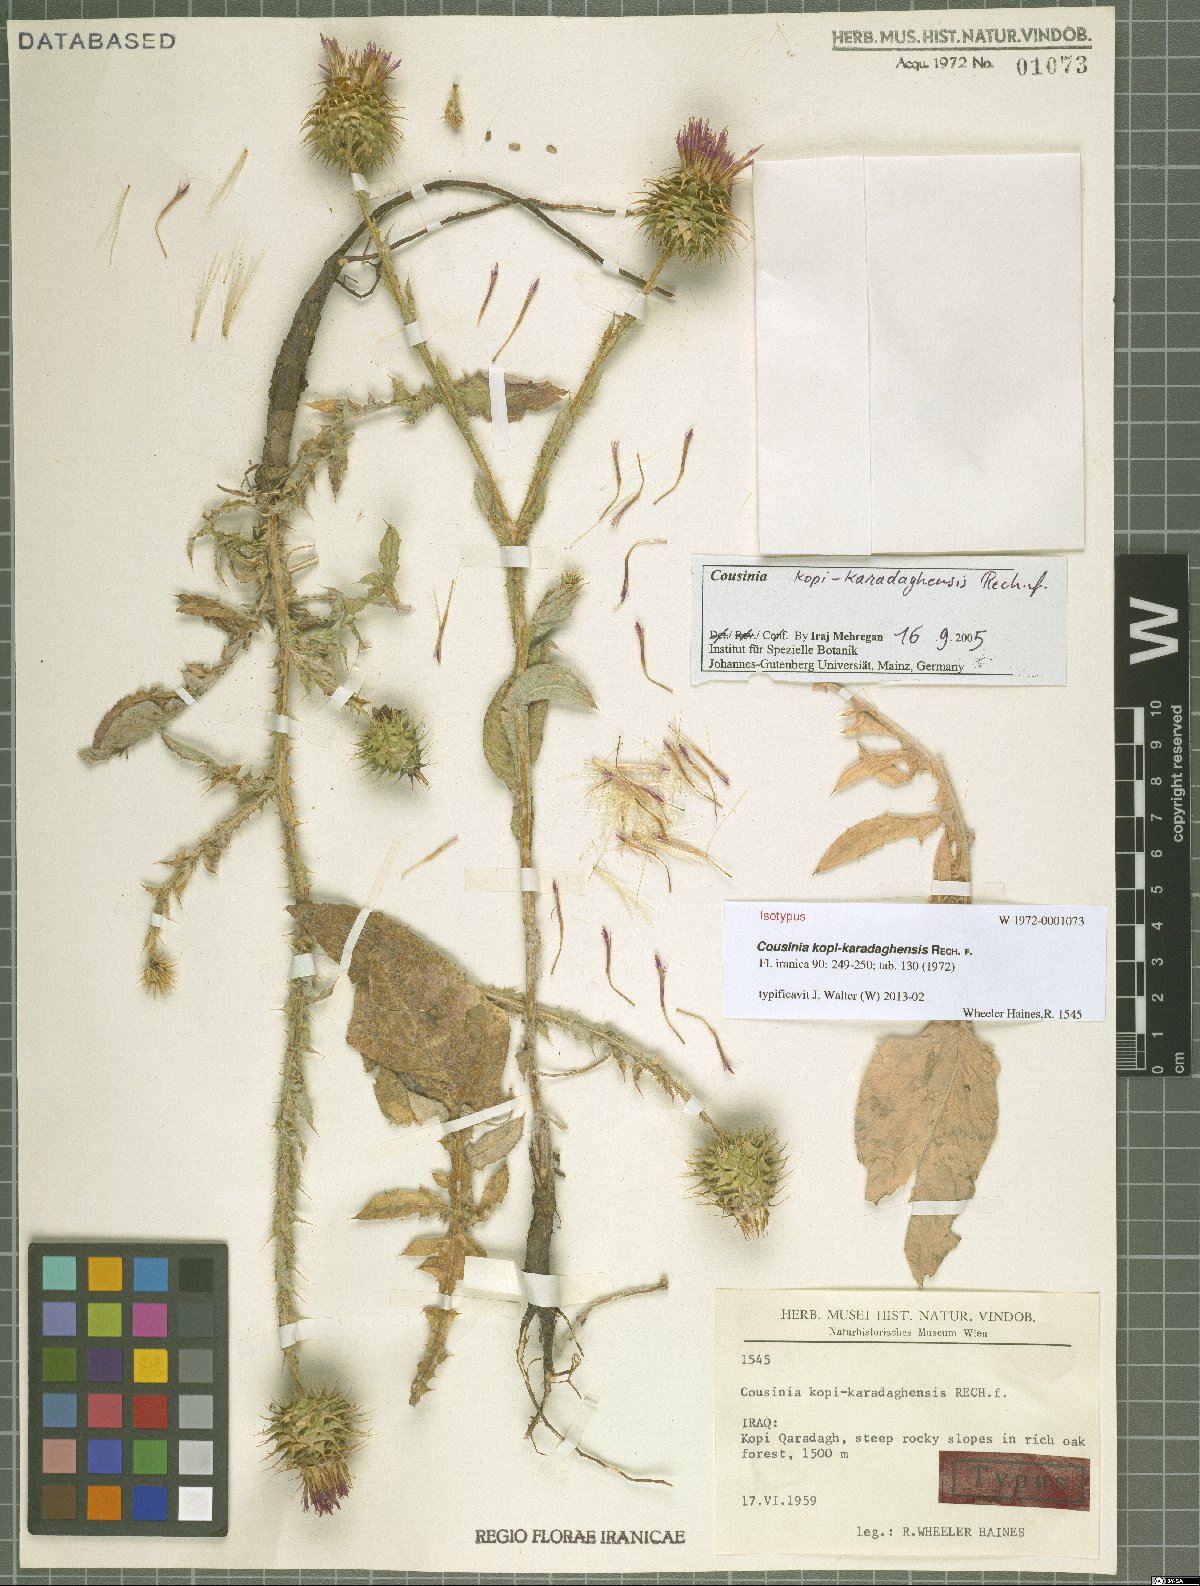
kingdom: Plantae
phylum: Tracheophyta
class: Magnoliopsida
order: Asterales
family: Asteraceae
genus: Cousinia
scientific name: Cousinia kopi-karadaghensis
